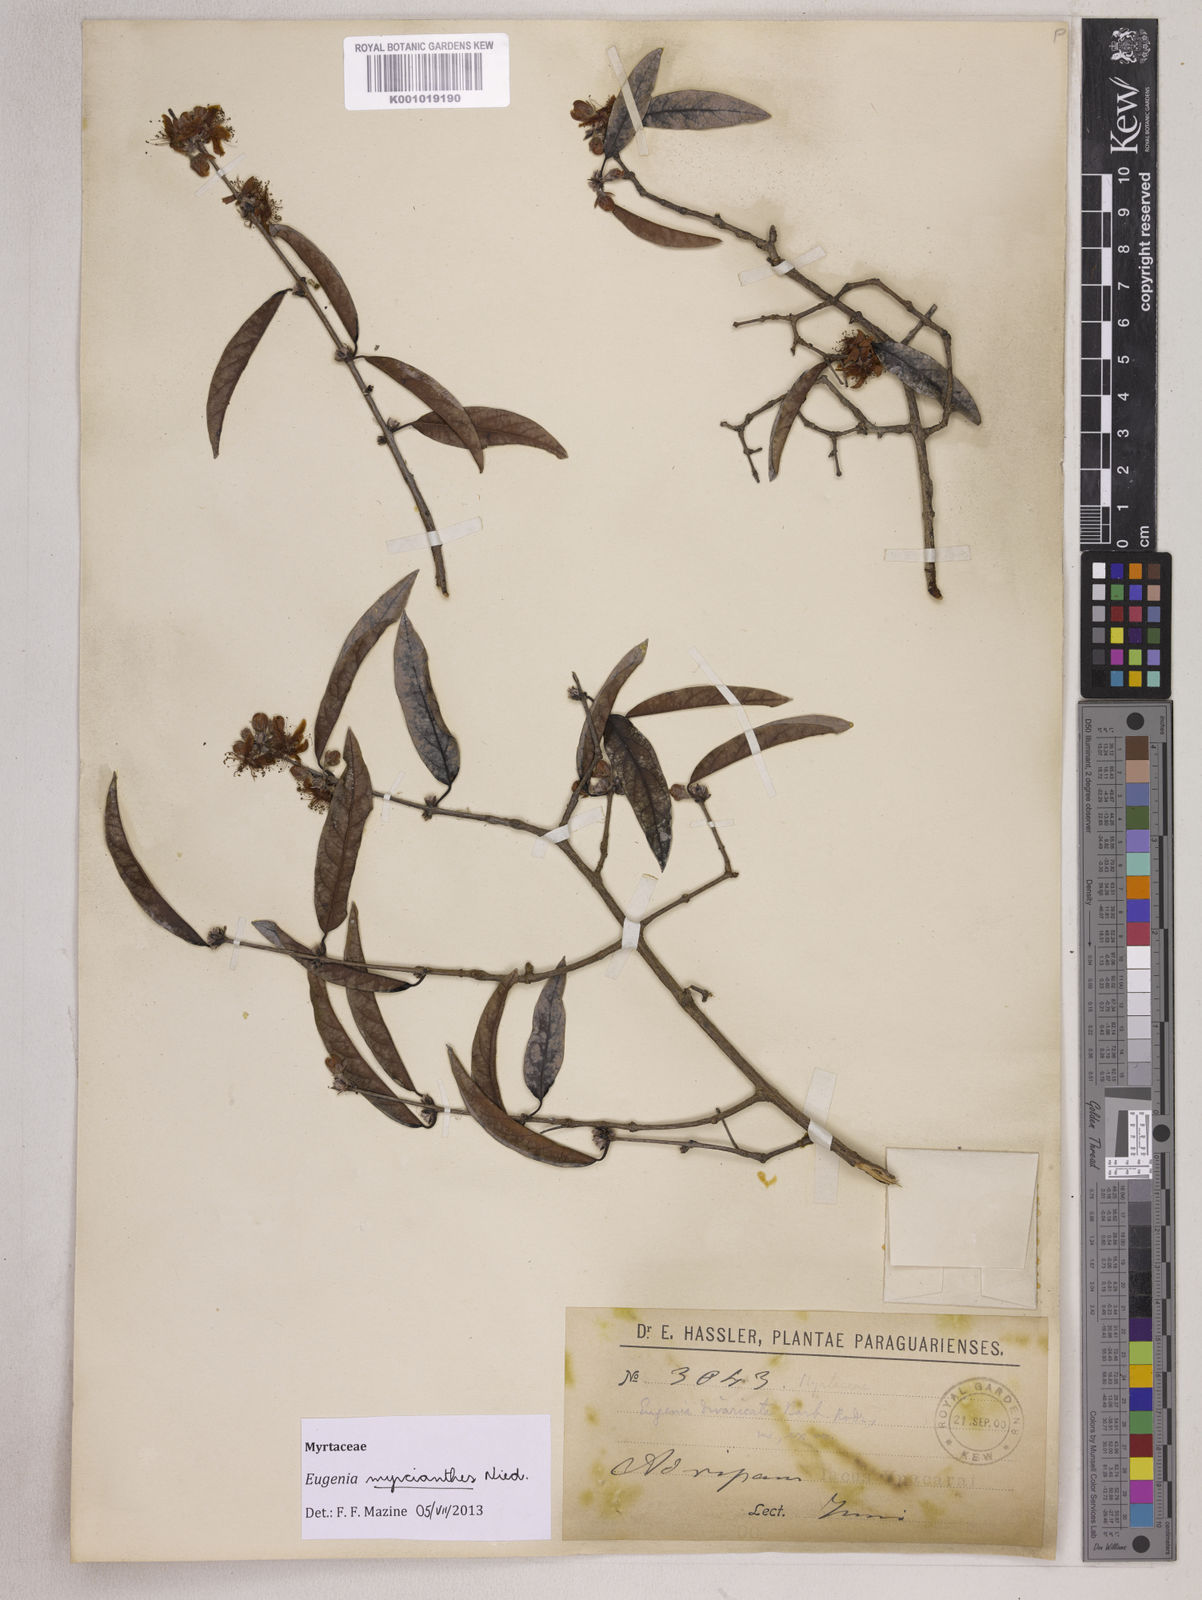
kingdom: Plantae
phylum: Tracheophyta
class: Magnoliopsida
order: Myrtales
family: Myrtaceae
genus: Eugenia
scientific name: Eugenia myrcianthes
